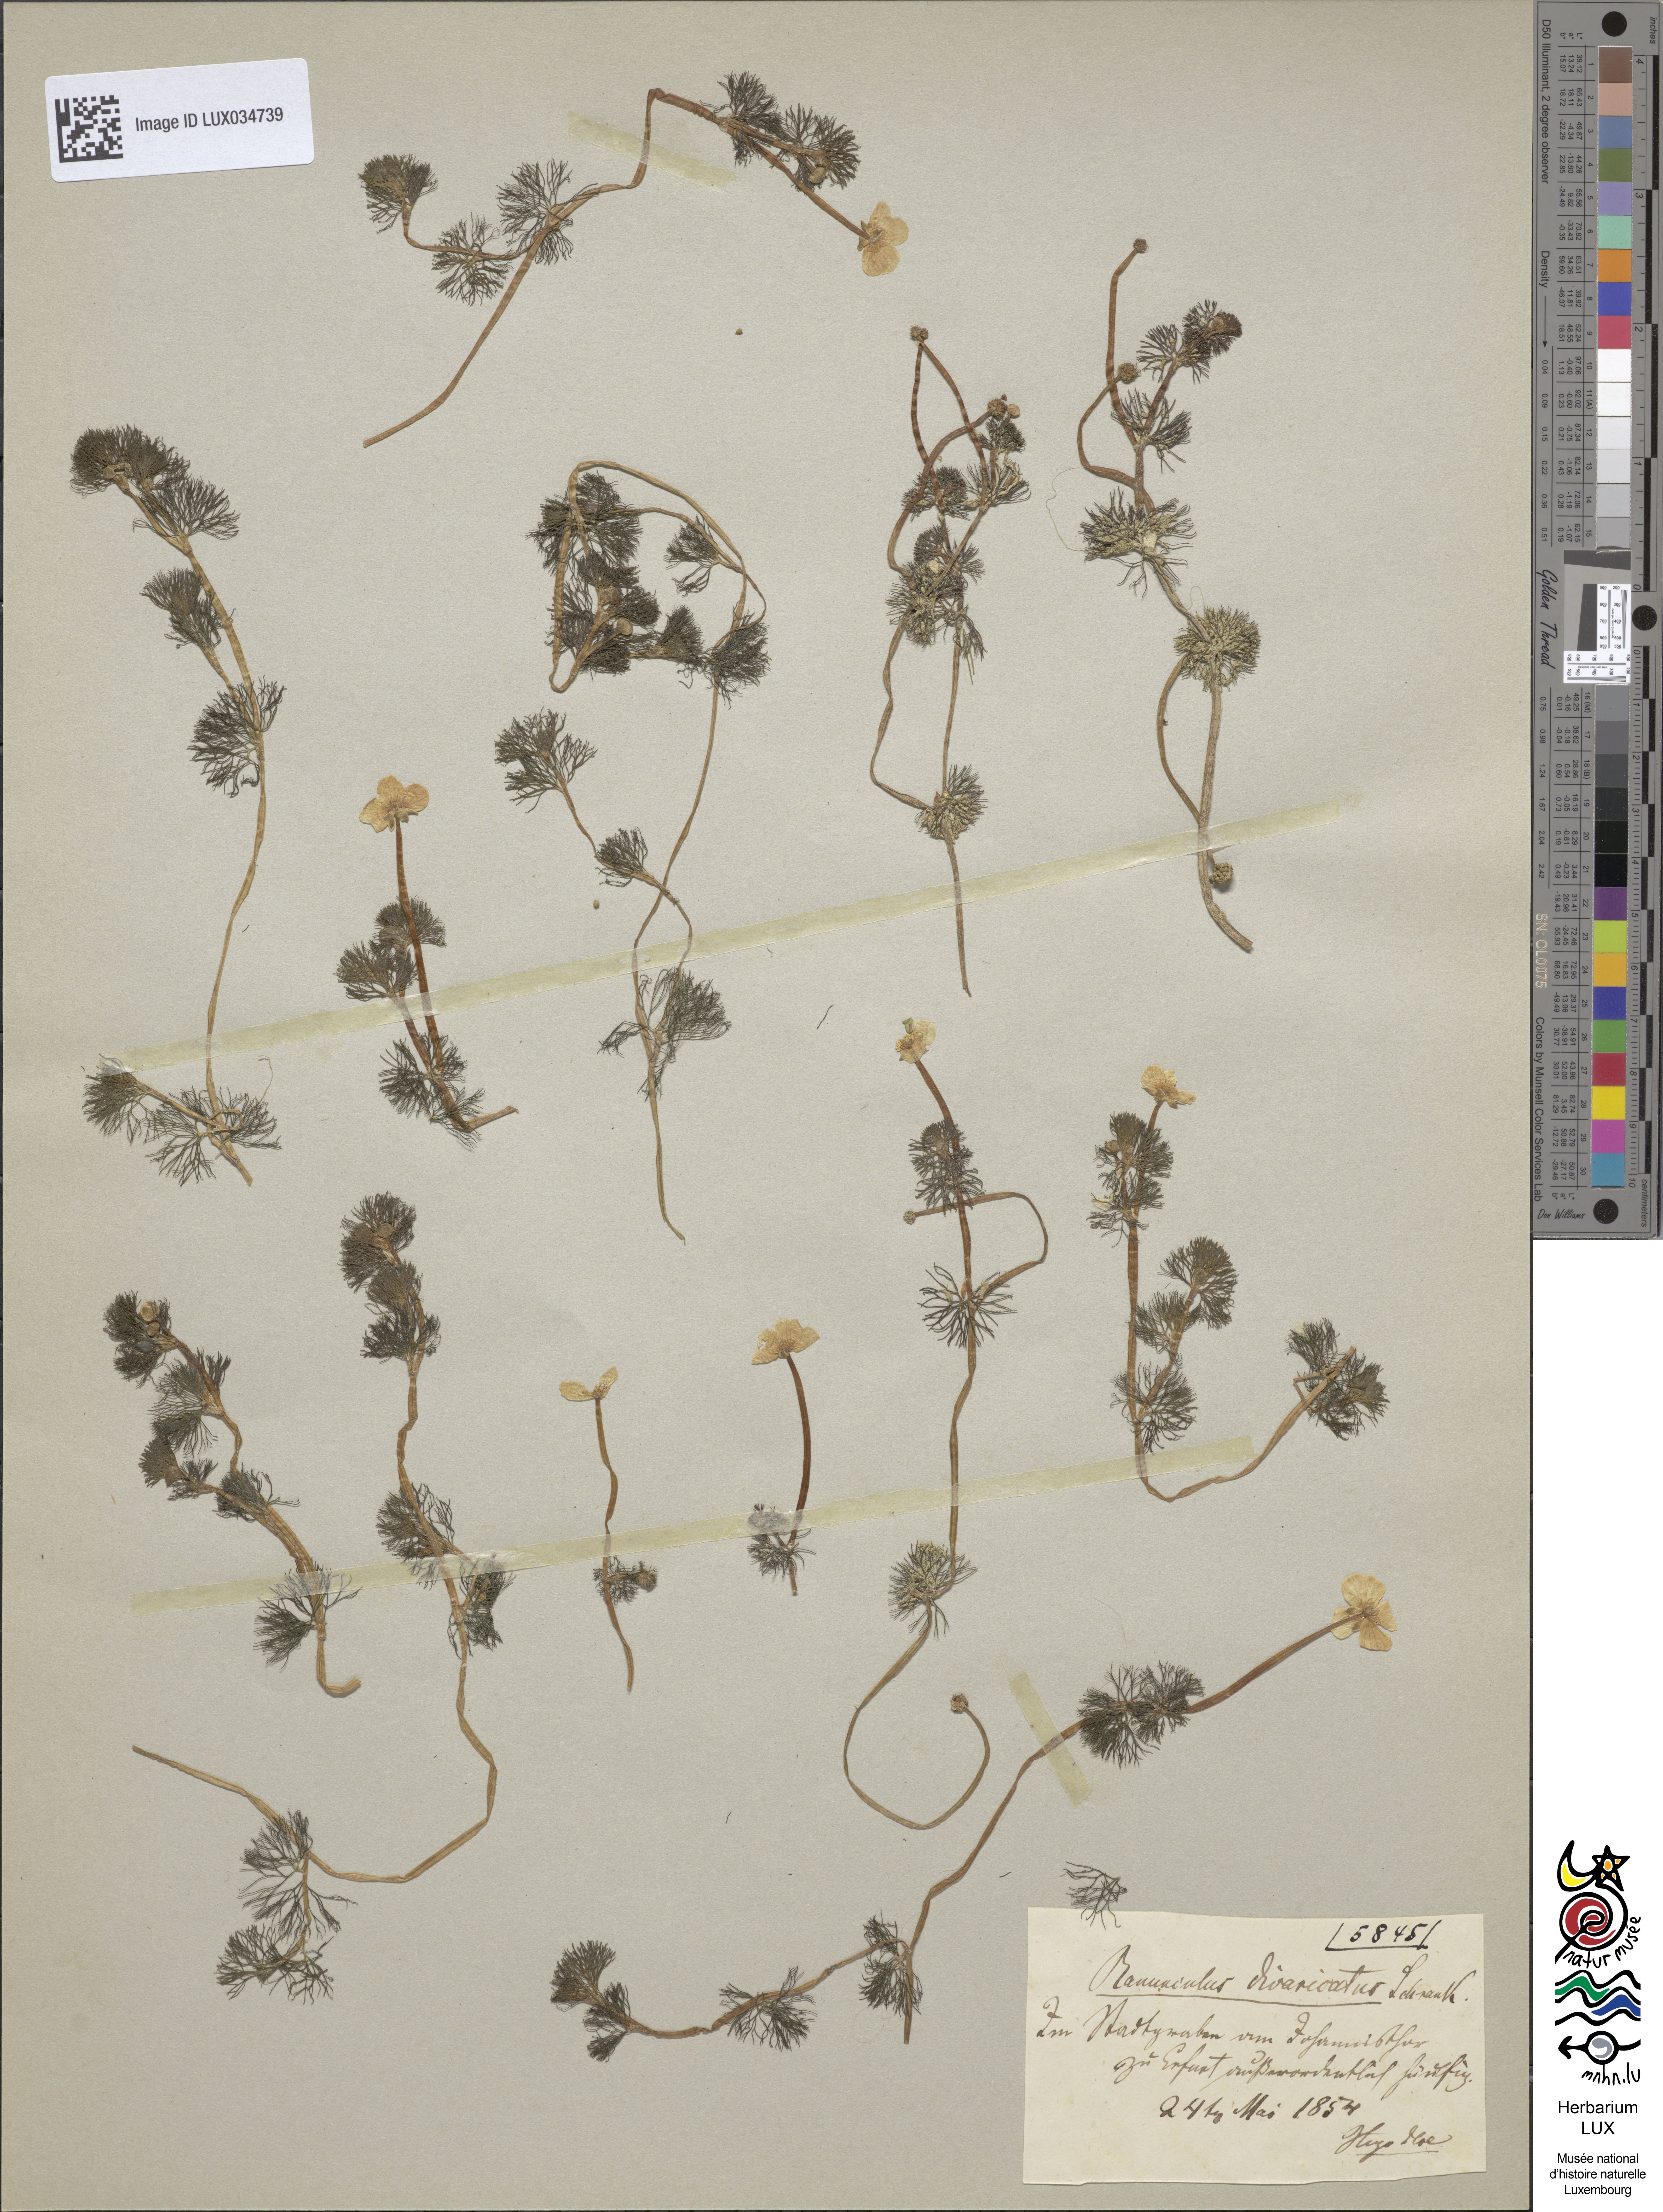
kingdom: Plantae
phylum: Tracheophyta
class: Magnoliopsida
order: Ranunculales
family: Ranunculaceae
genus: Ranunculus
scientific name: Ranunculus trichophyllus
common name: Thread-leaved water-crowfoot
